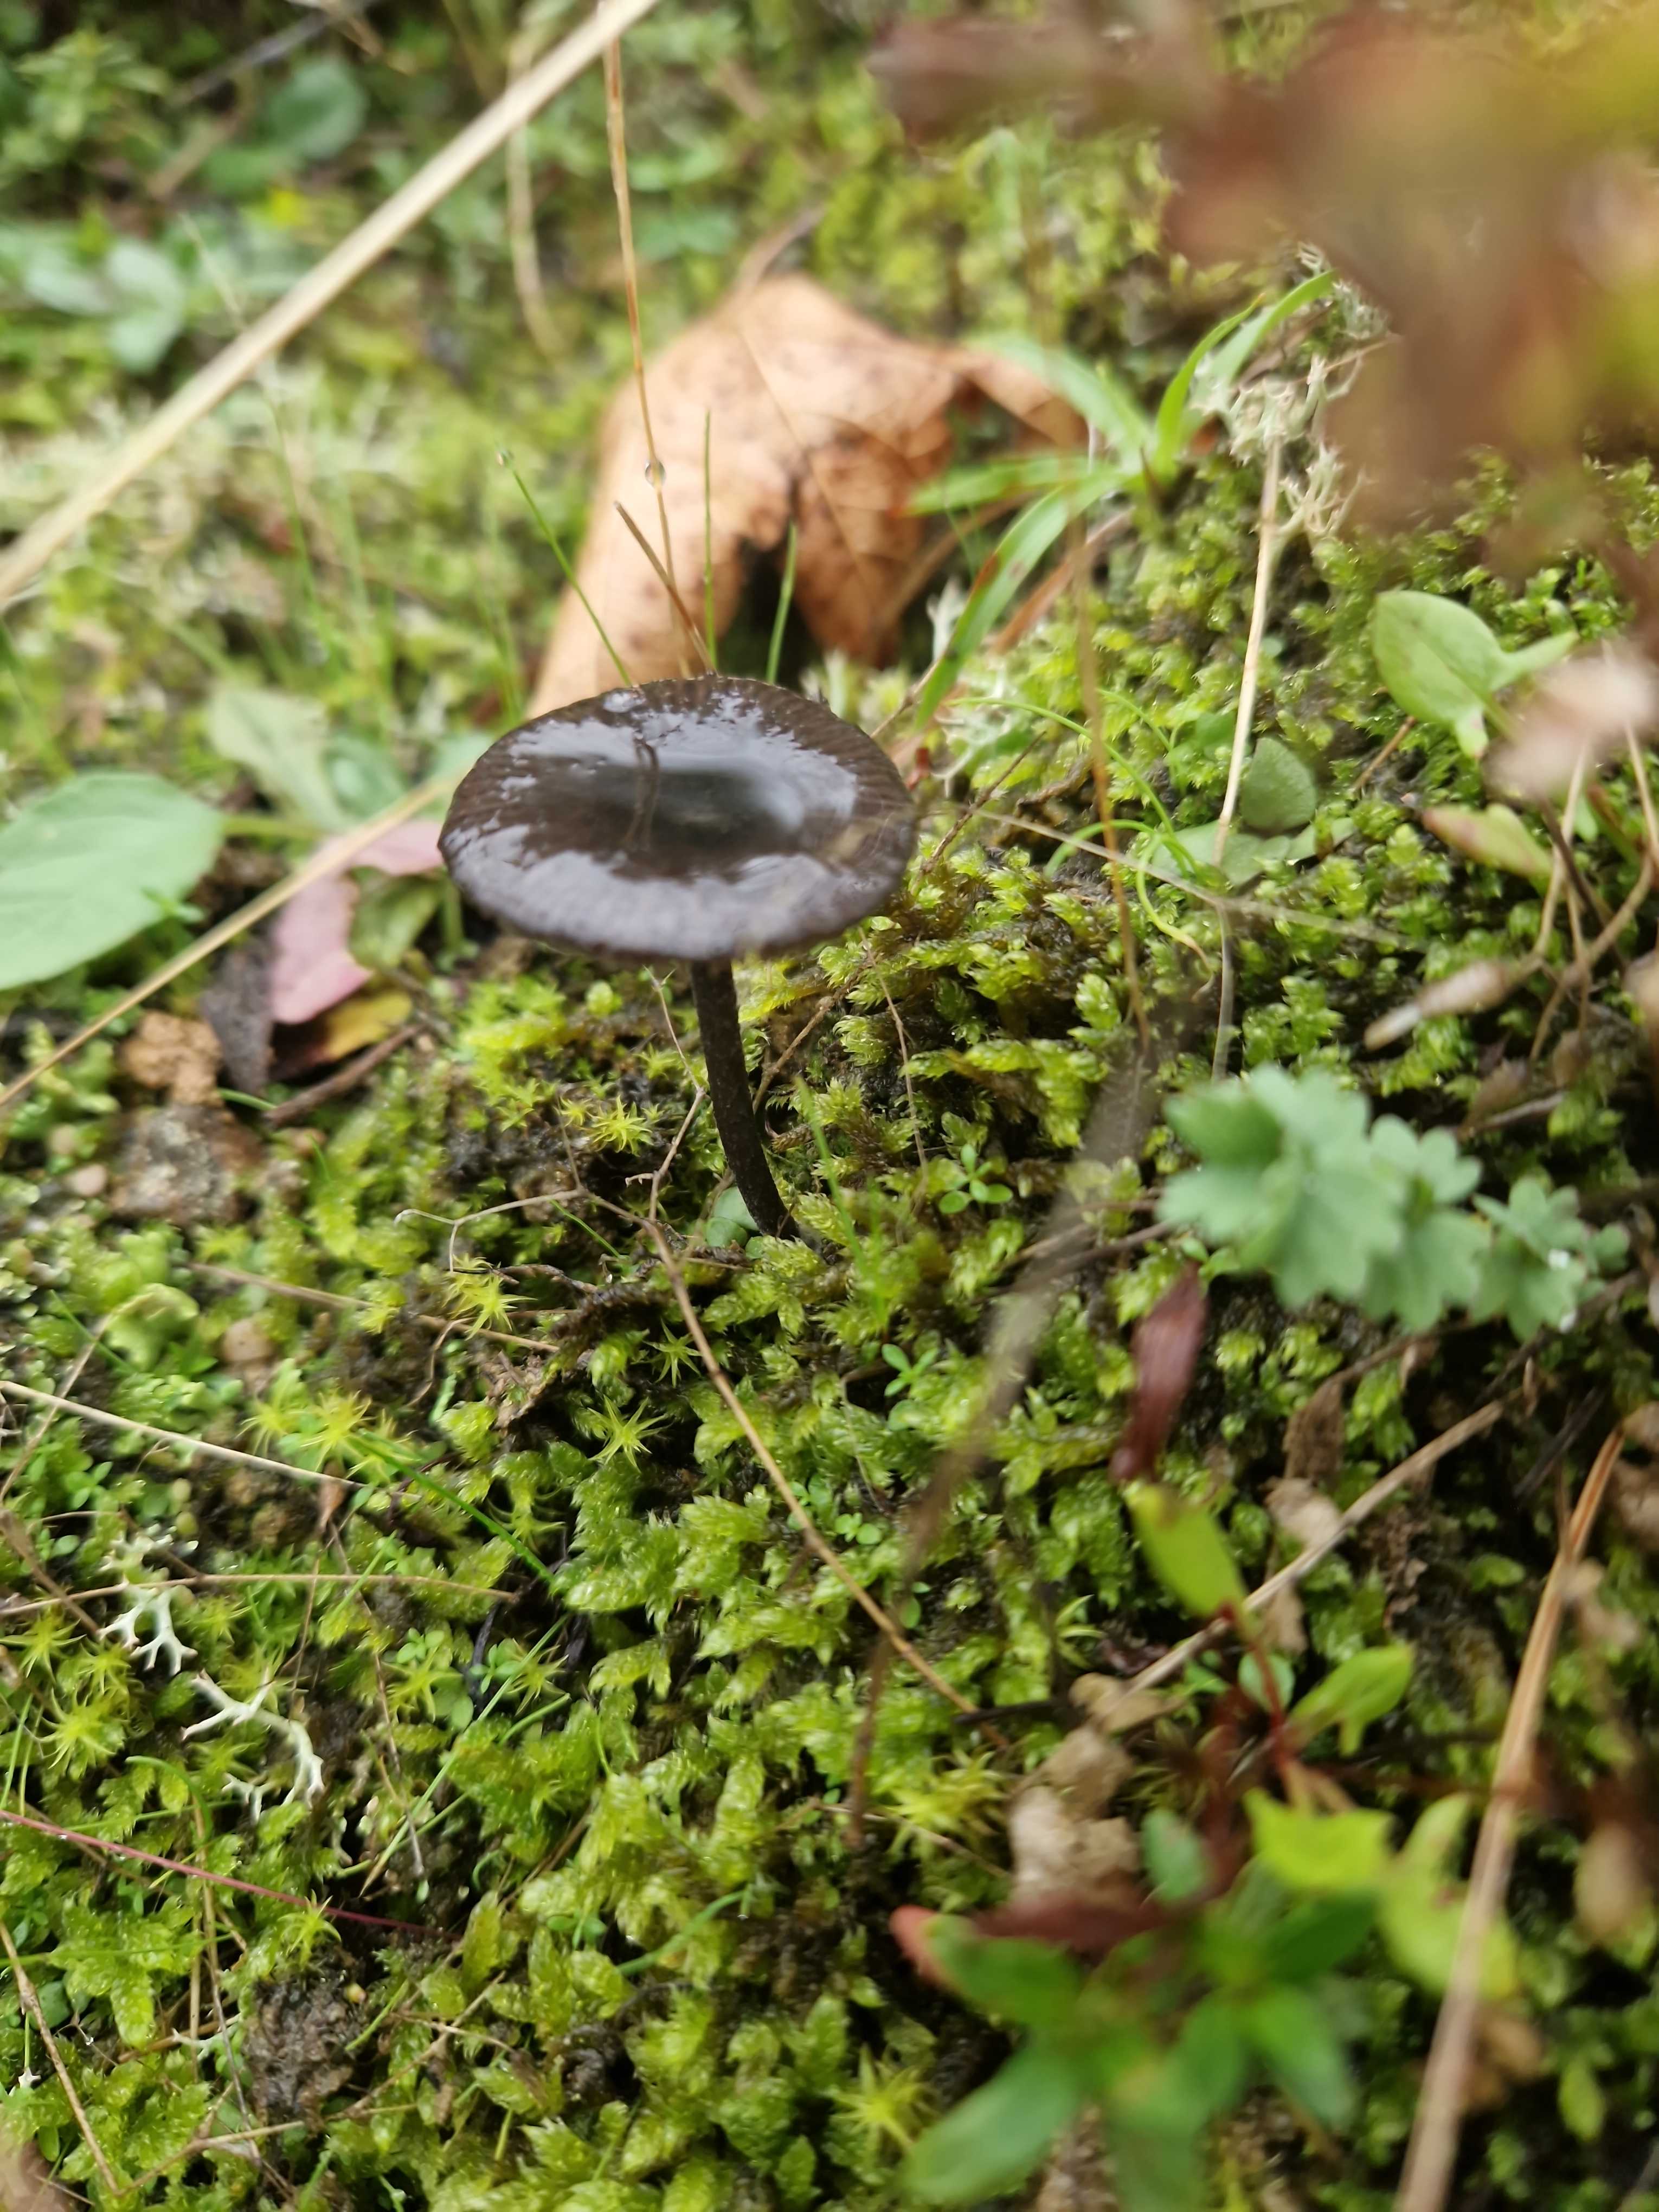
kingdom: Fungi
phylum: Basidiomycota
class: Agaricomycetes
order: Agaricales
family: Entolomataceae
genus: Entoloma
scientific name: Entoloma
